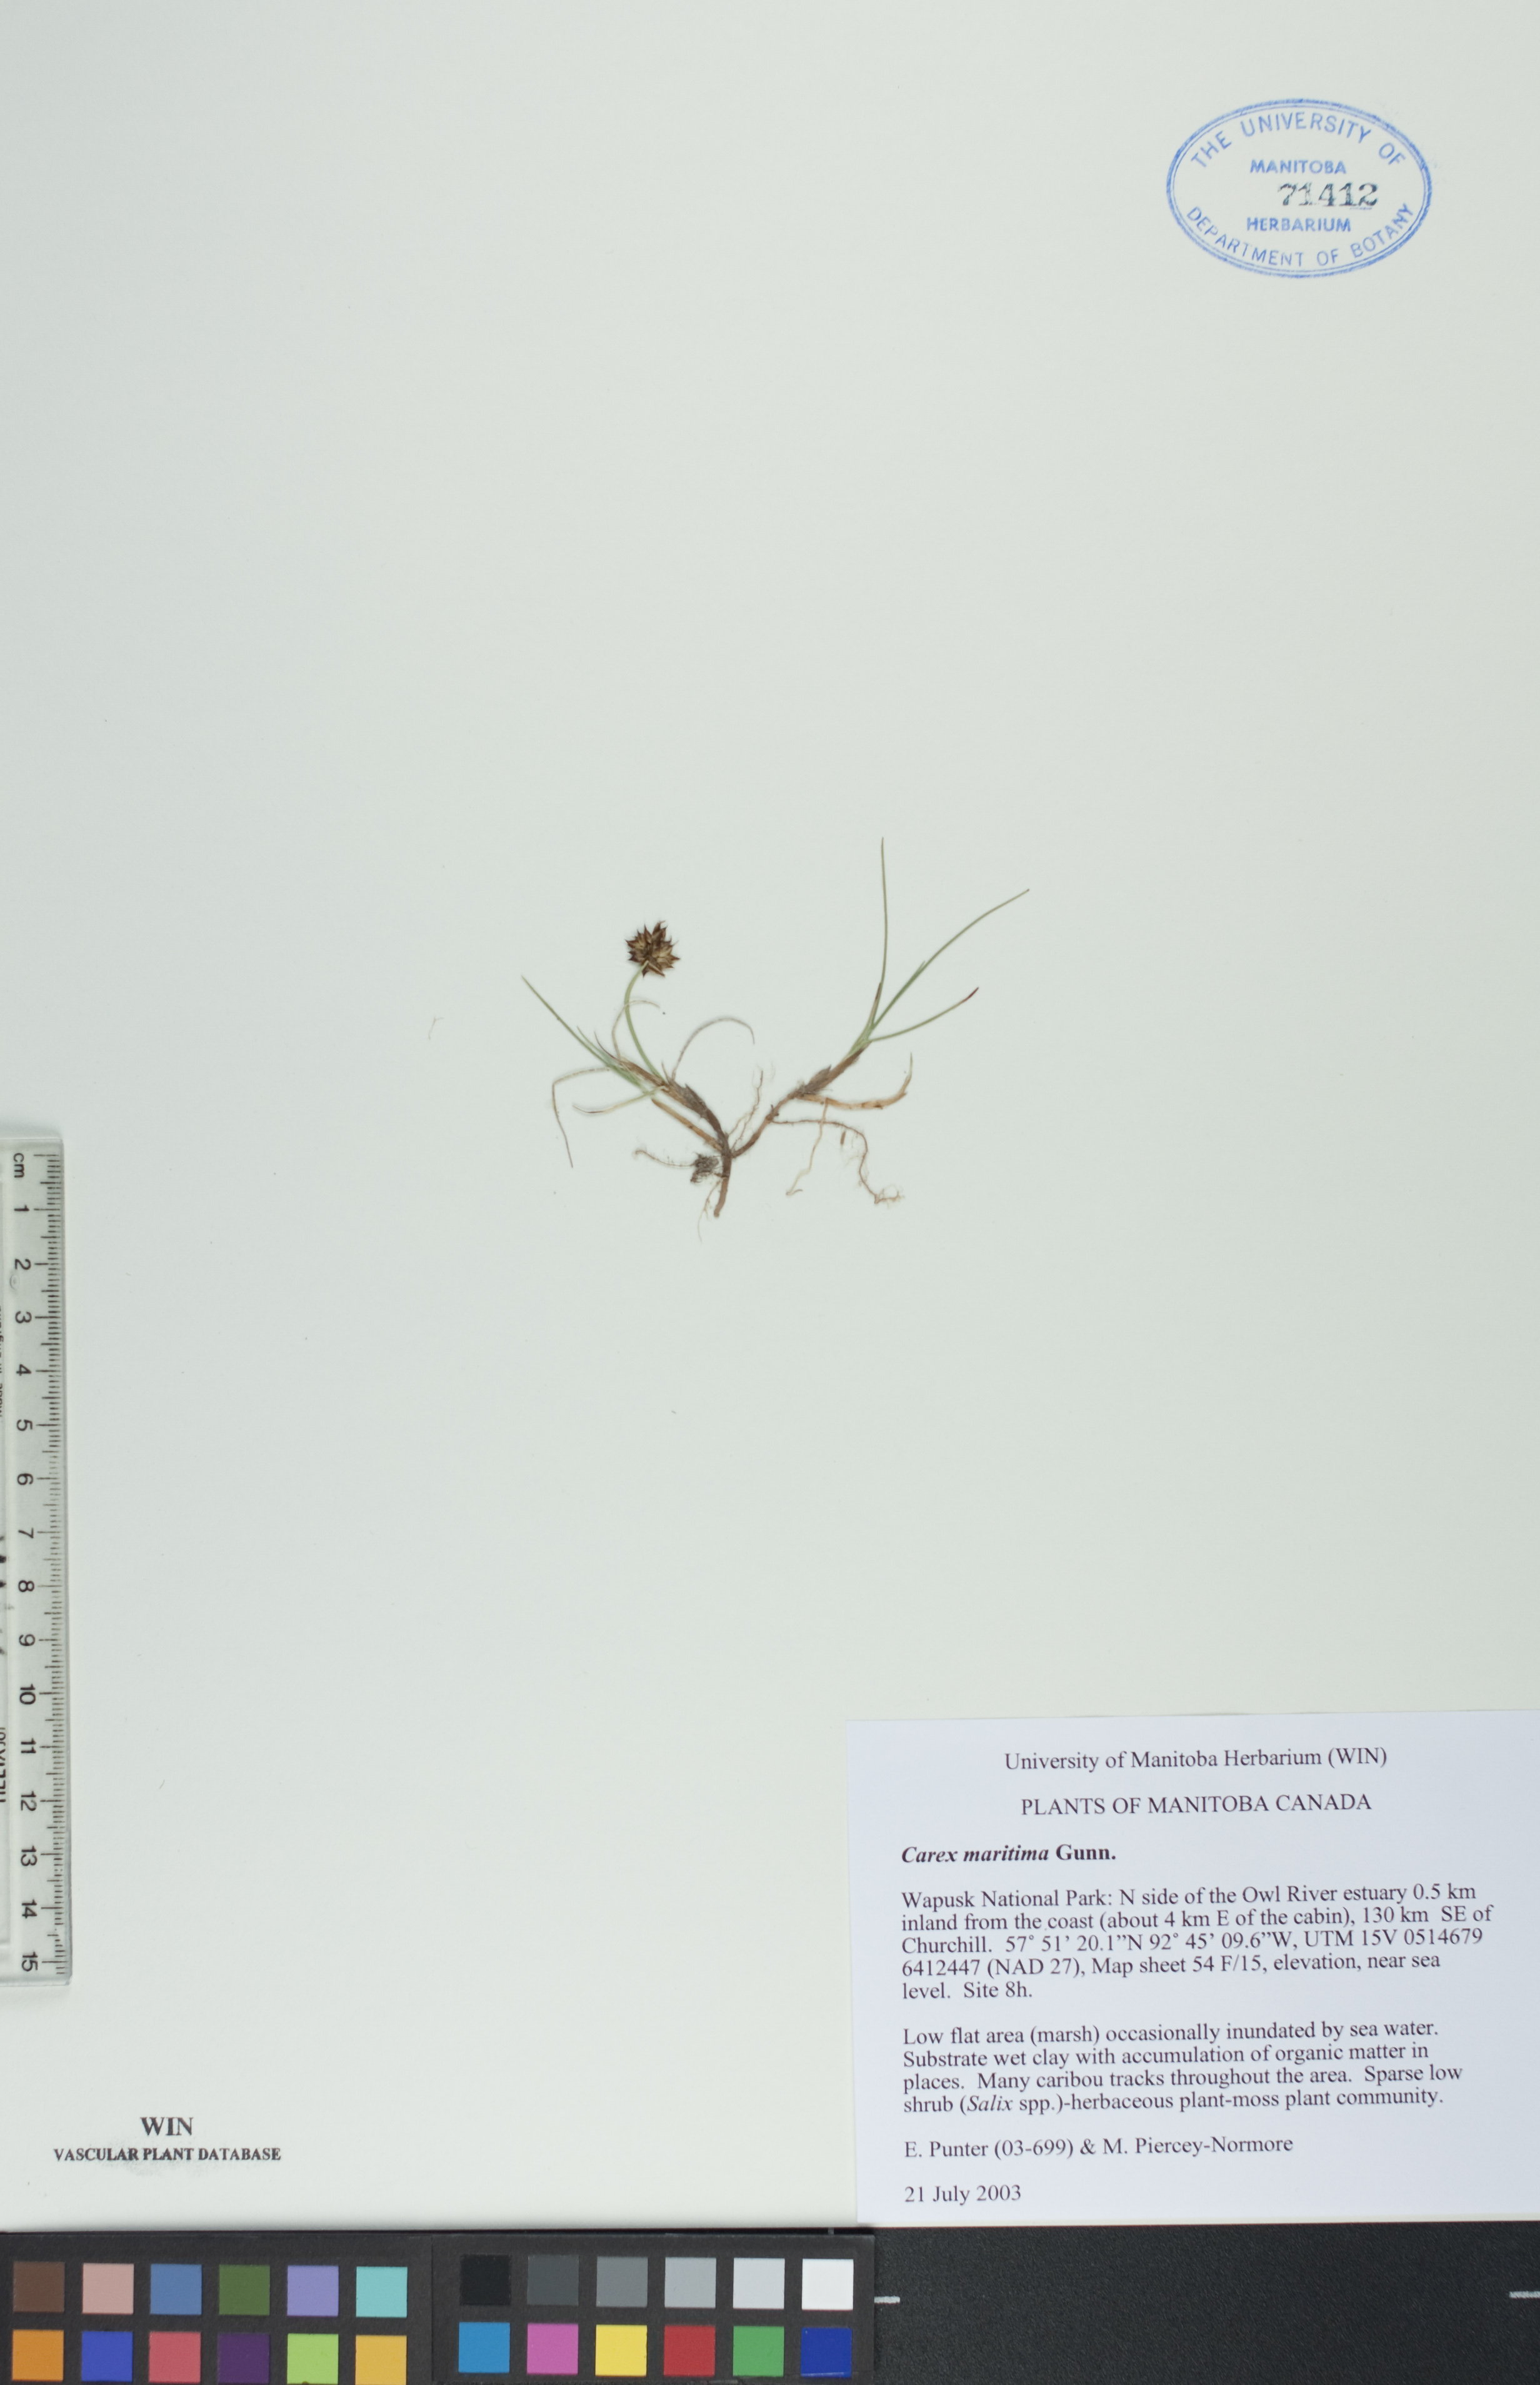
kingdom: Plantae
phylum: Tracheophyta
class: Liliopsida
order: Poales
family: Cyperaceae
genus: Carex
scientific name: Carex maritima
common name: Curved sedge
